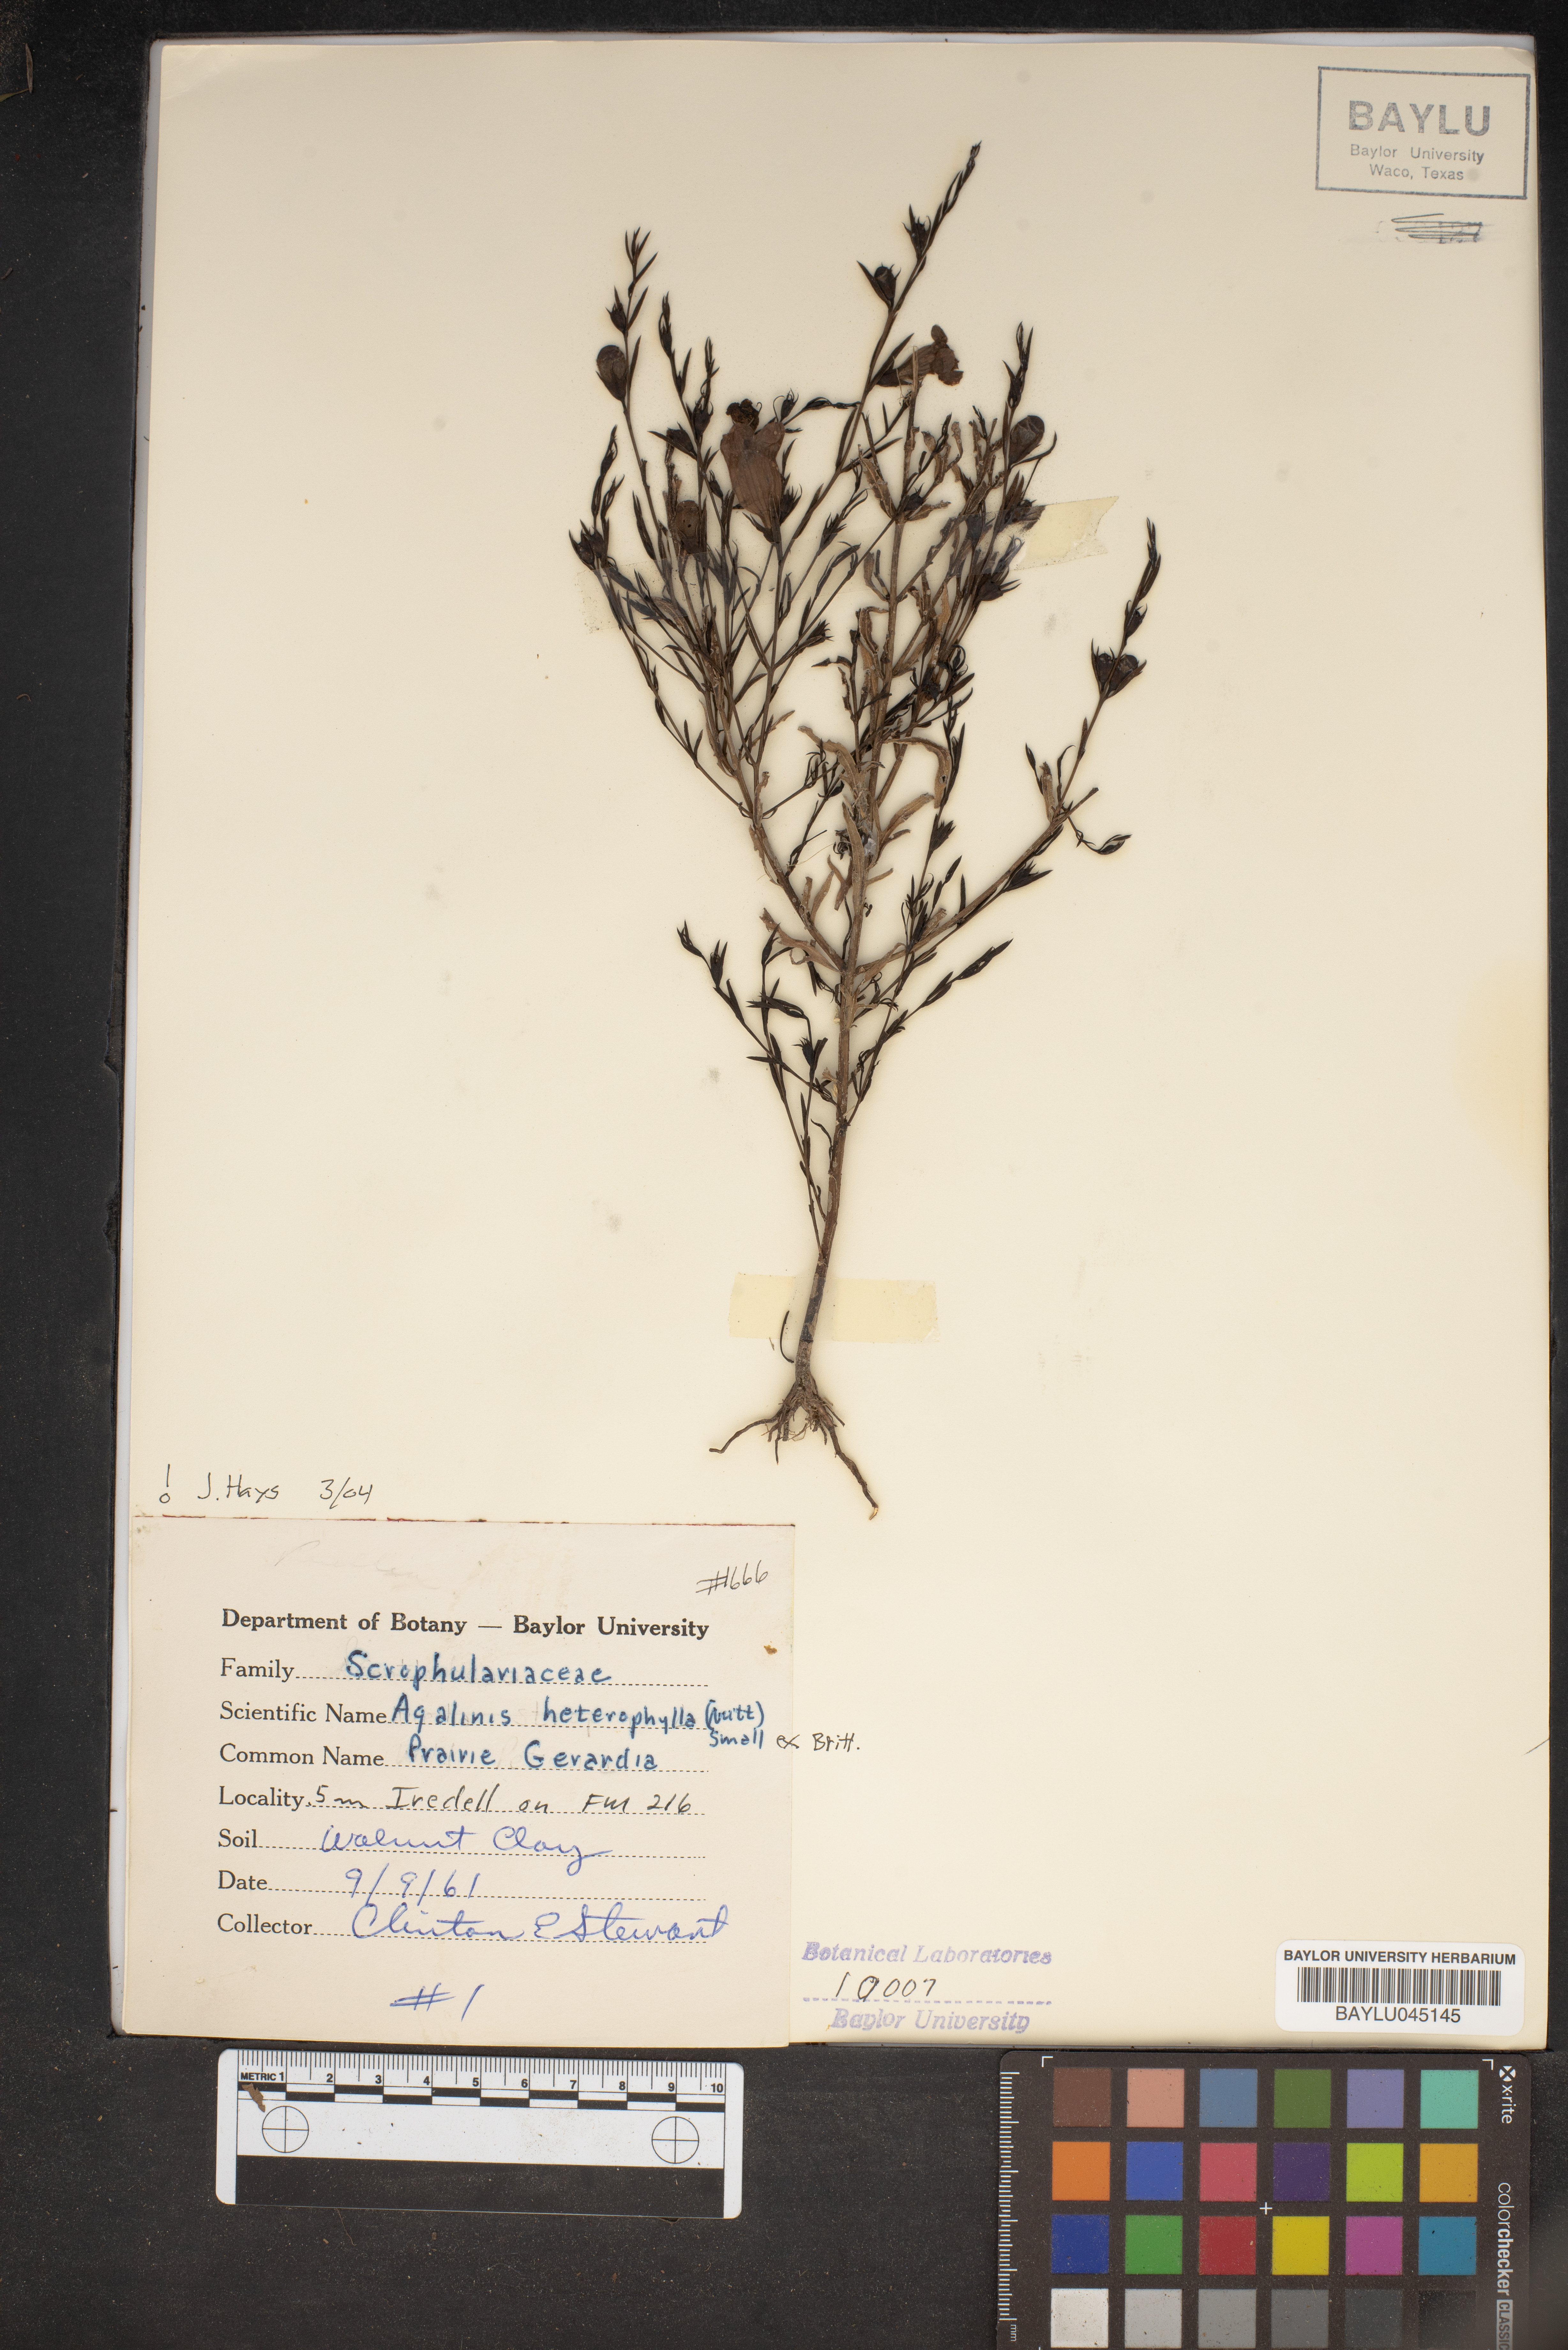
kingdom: Plantae
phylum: Tracheophyta
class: Magnoliopsida
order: Lamiales
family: Orobanchaceae
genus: Agalinis
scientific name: Agalinis heterophylla
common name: Prairie agalinis
